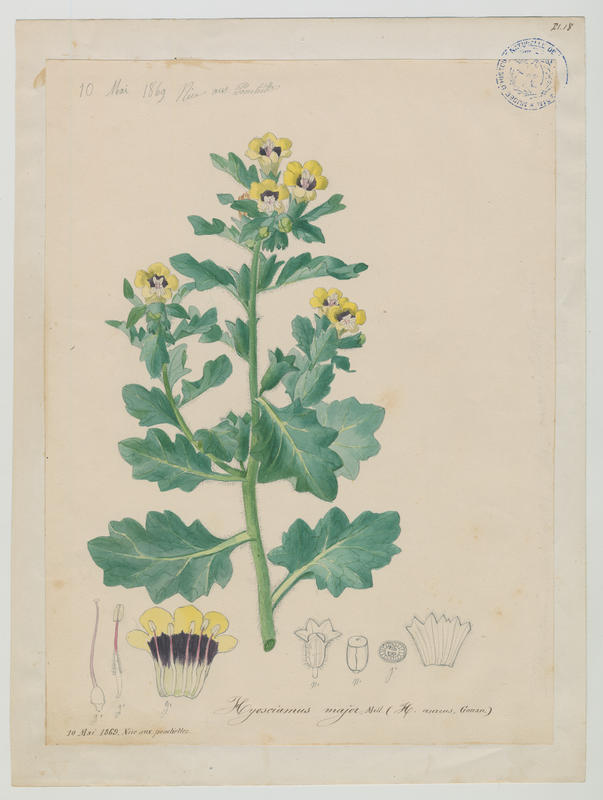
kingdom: Plantae
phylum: Tracheophyta
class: Magnoliopsida
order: Solanales
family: Solanaceae
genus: Hyoscyamus
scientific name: Hyoscyamus albus
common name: White henbane
